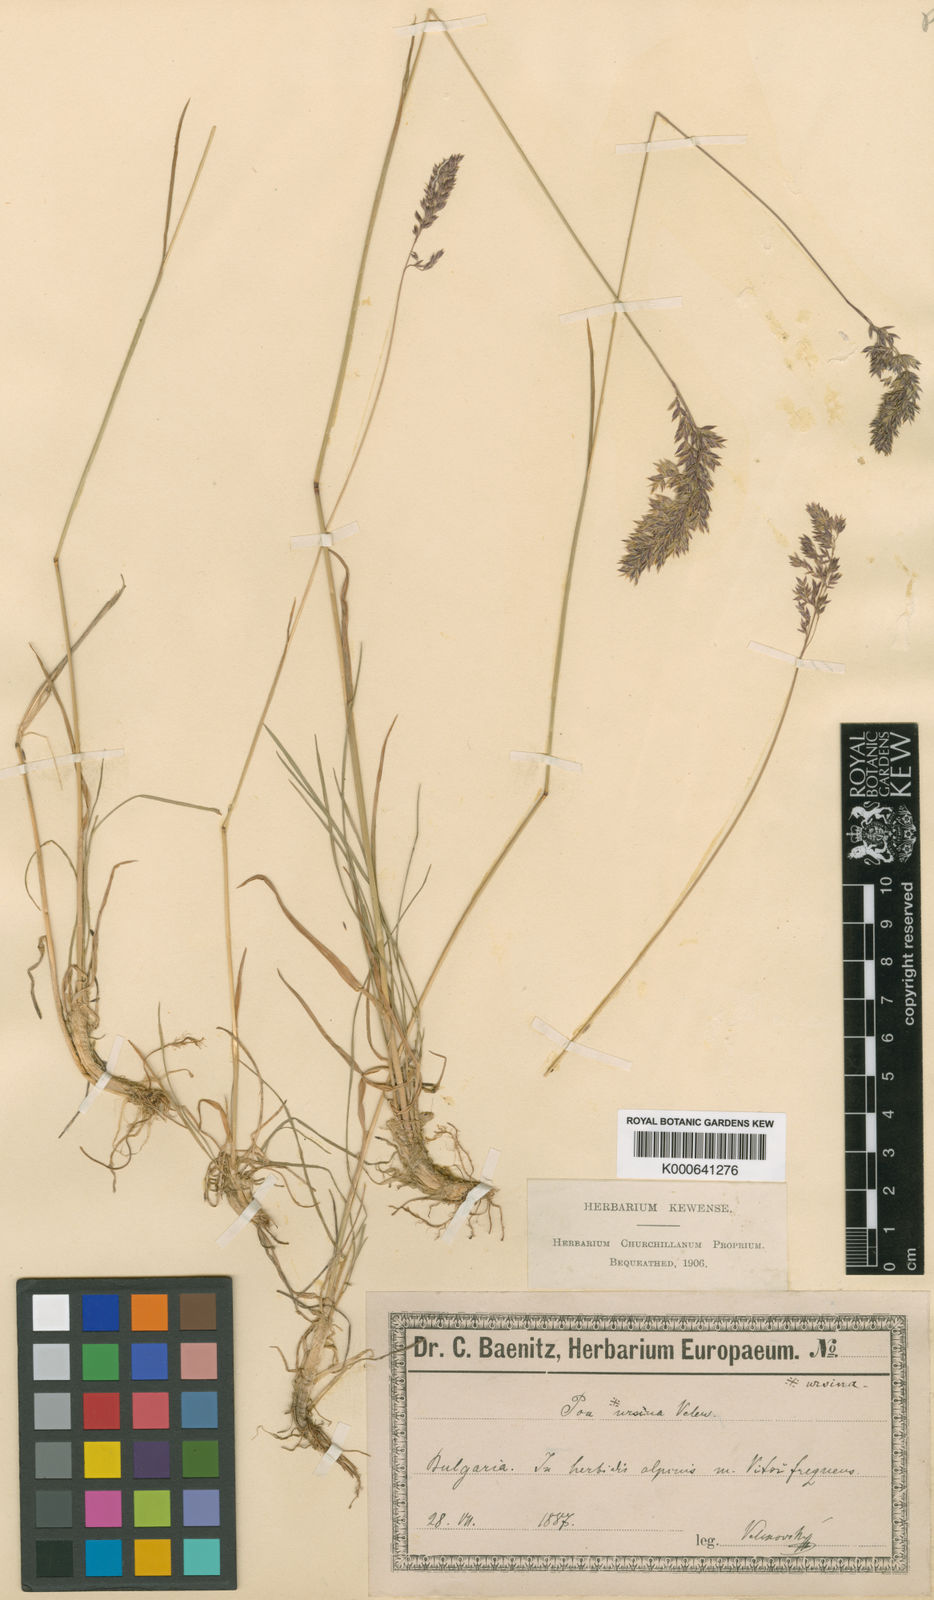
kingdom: Plantae
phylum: Tracheophyta
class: Liliopsida
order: Poales
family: Poaceae
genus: Briza
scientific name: Briza media
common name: Quaking grass
